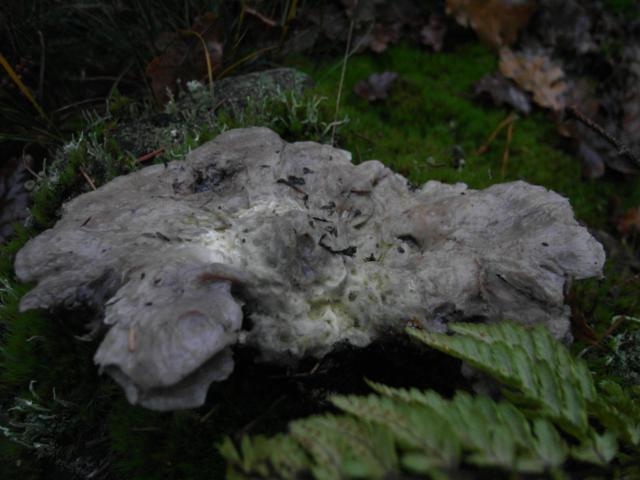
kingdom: Fungi
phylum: Basidiomycota
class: Agaricomycetes
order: Thelephorales
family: Bankeraceae
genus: Hydnellum
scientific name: Hydnellum caeruleum
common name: blålig korkpigsvamp
